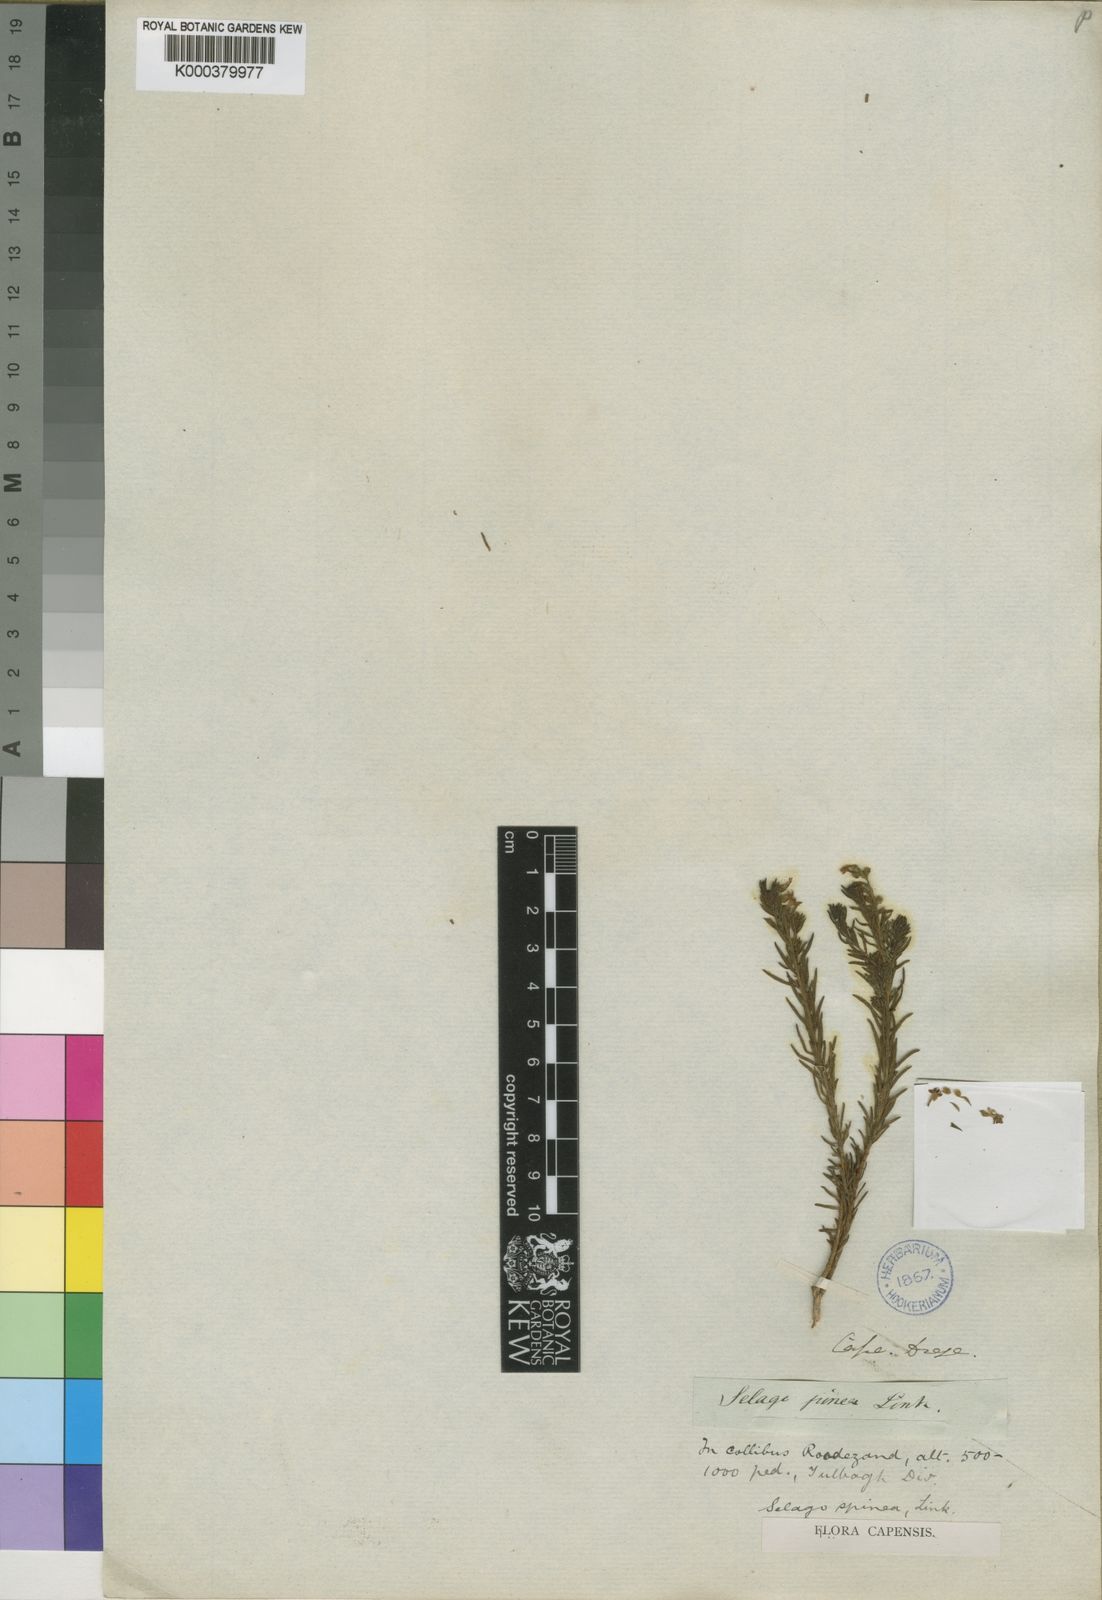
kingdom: Plantae
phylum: Tracheophyta
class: Magnoliopsida
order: Lamiales
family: Scrophulariaceae
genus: Selago
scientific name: Selago
